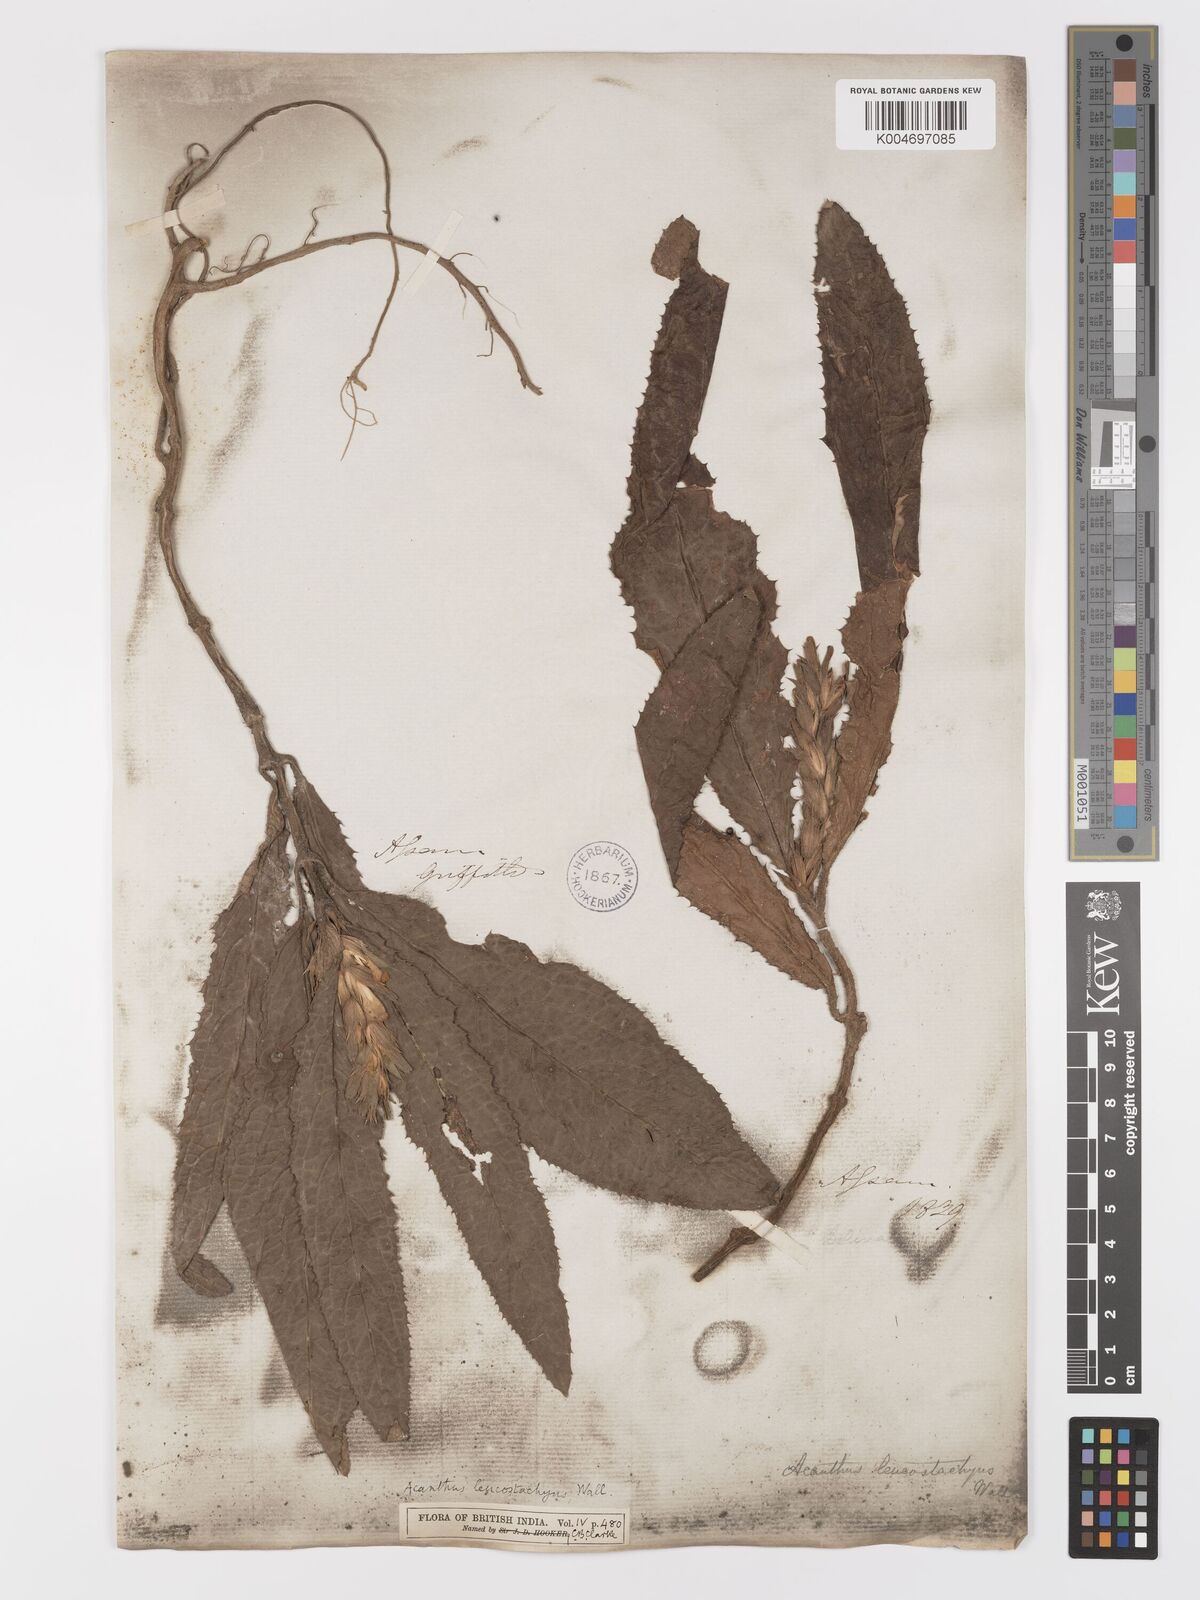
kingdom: Plantae
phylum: Tracheophyta
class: Magnoliopsida
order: Lamiales
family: Acanthaceae
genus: Acanthus
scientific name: Acanthus leucostachyus
